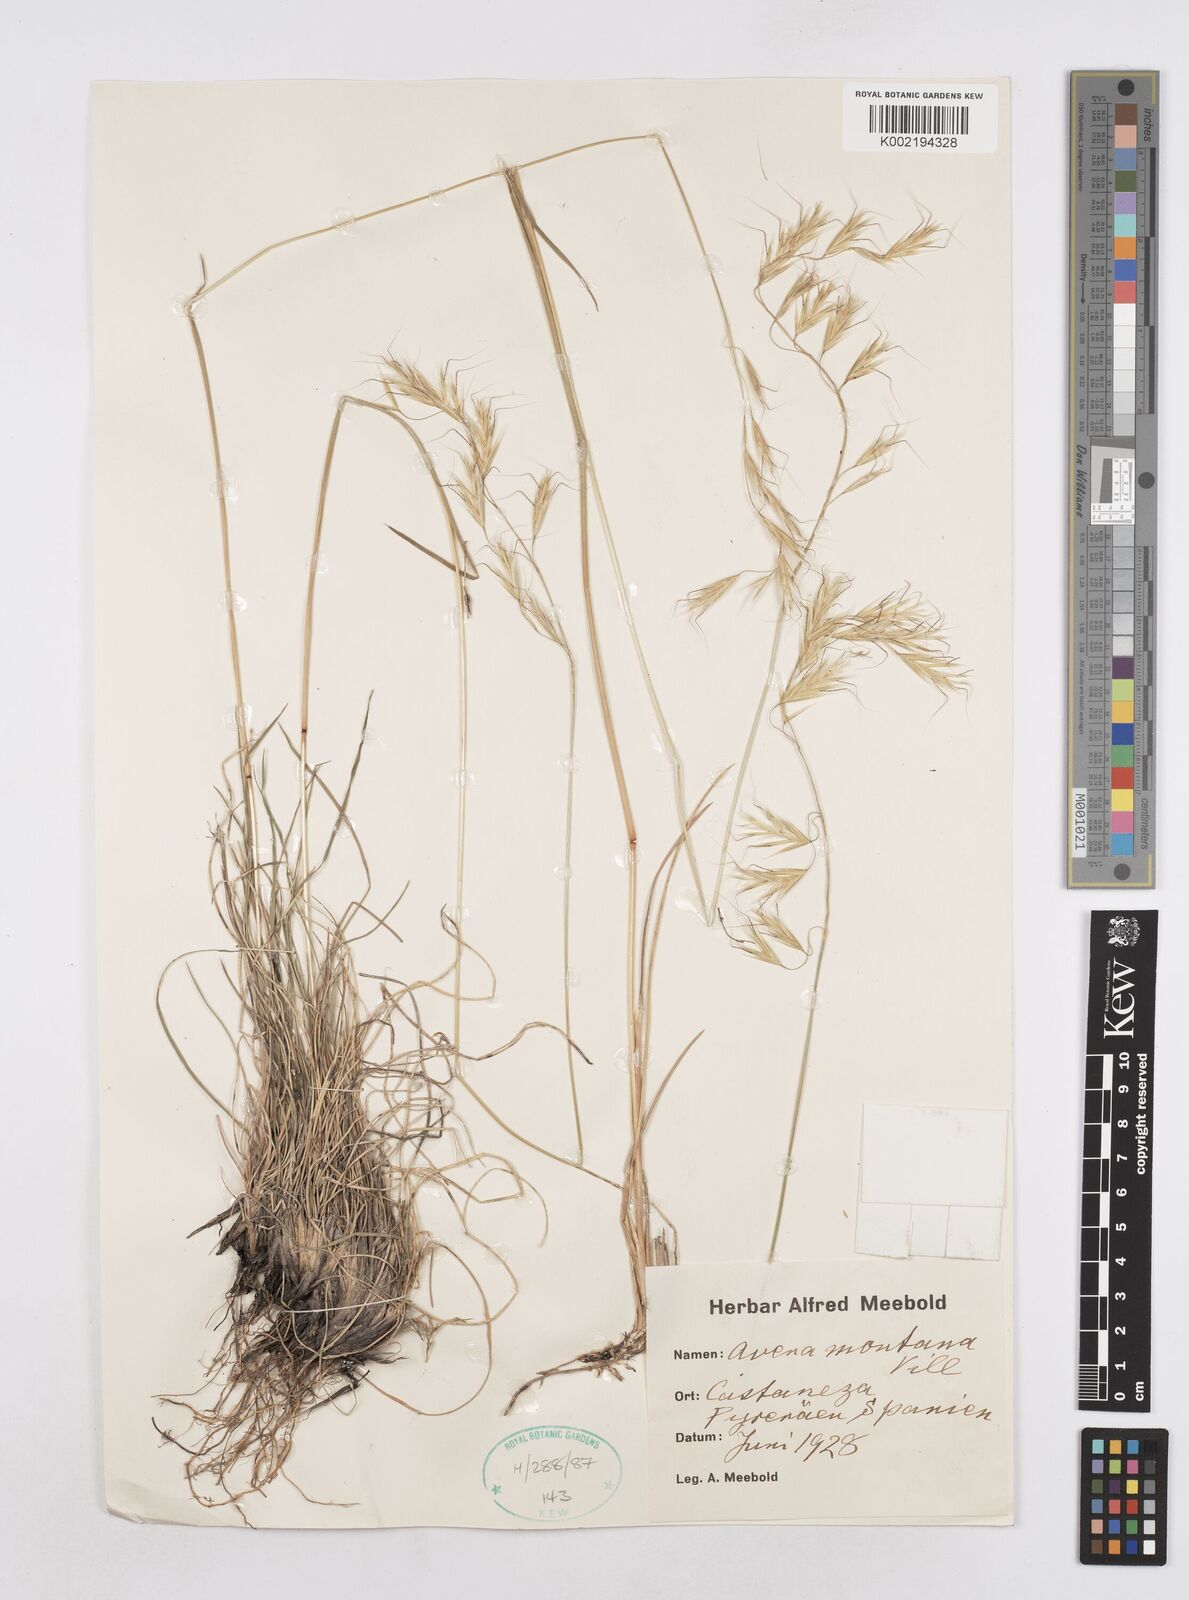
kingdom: Plantae
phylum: Tracheophyta
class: Liliopsida
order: Poales
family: Poaceae
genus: Helictotrichon
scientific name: Helictotrichon sedenense
